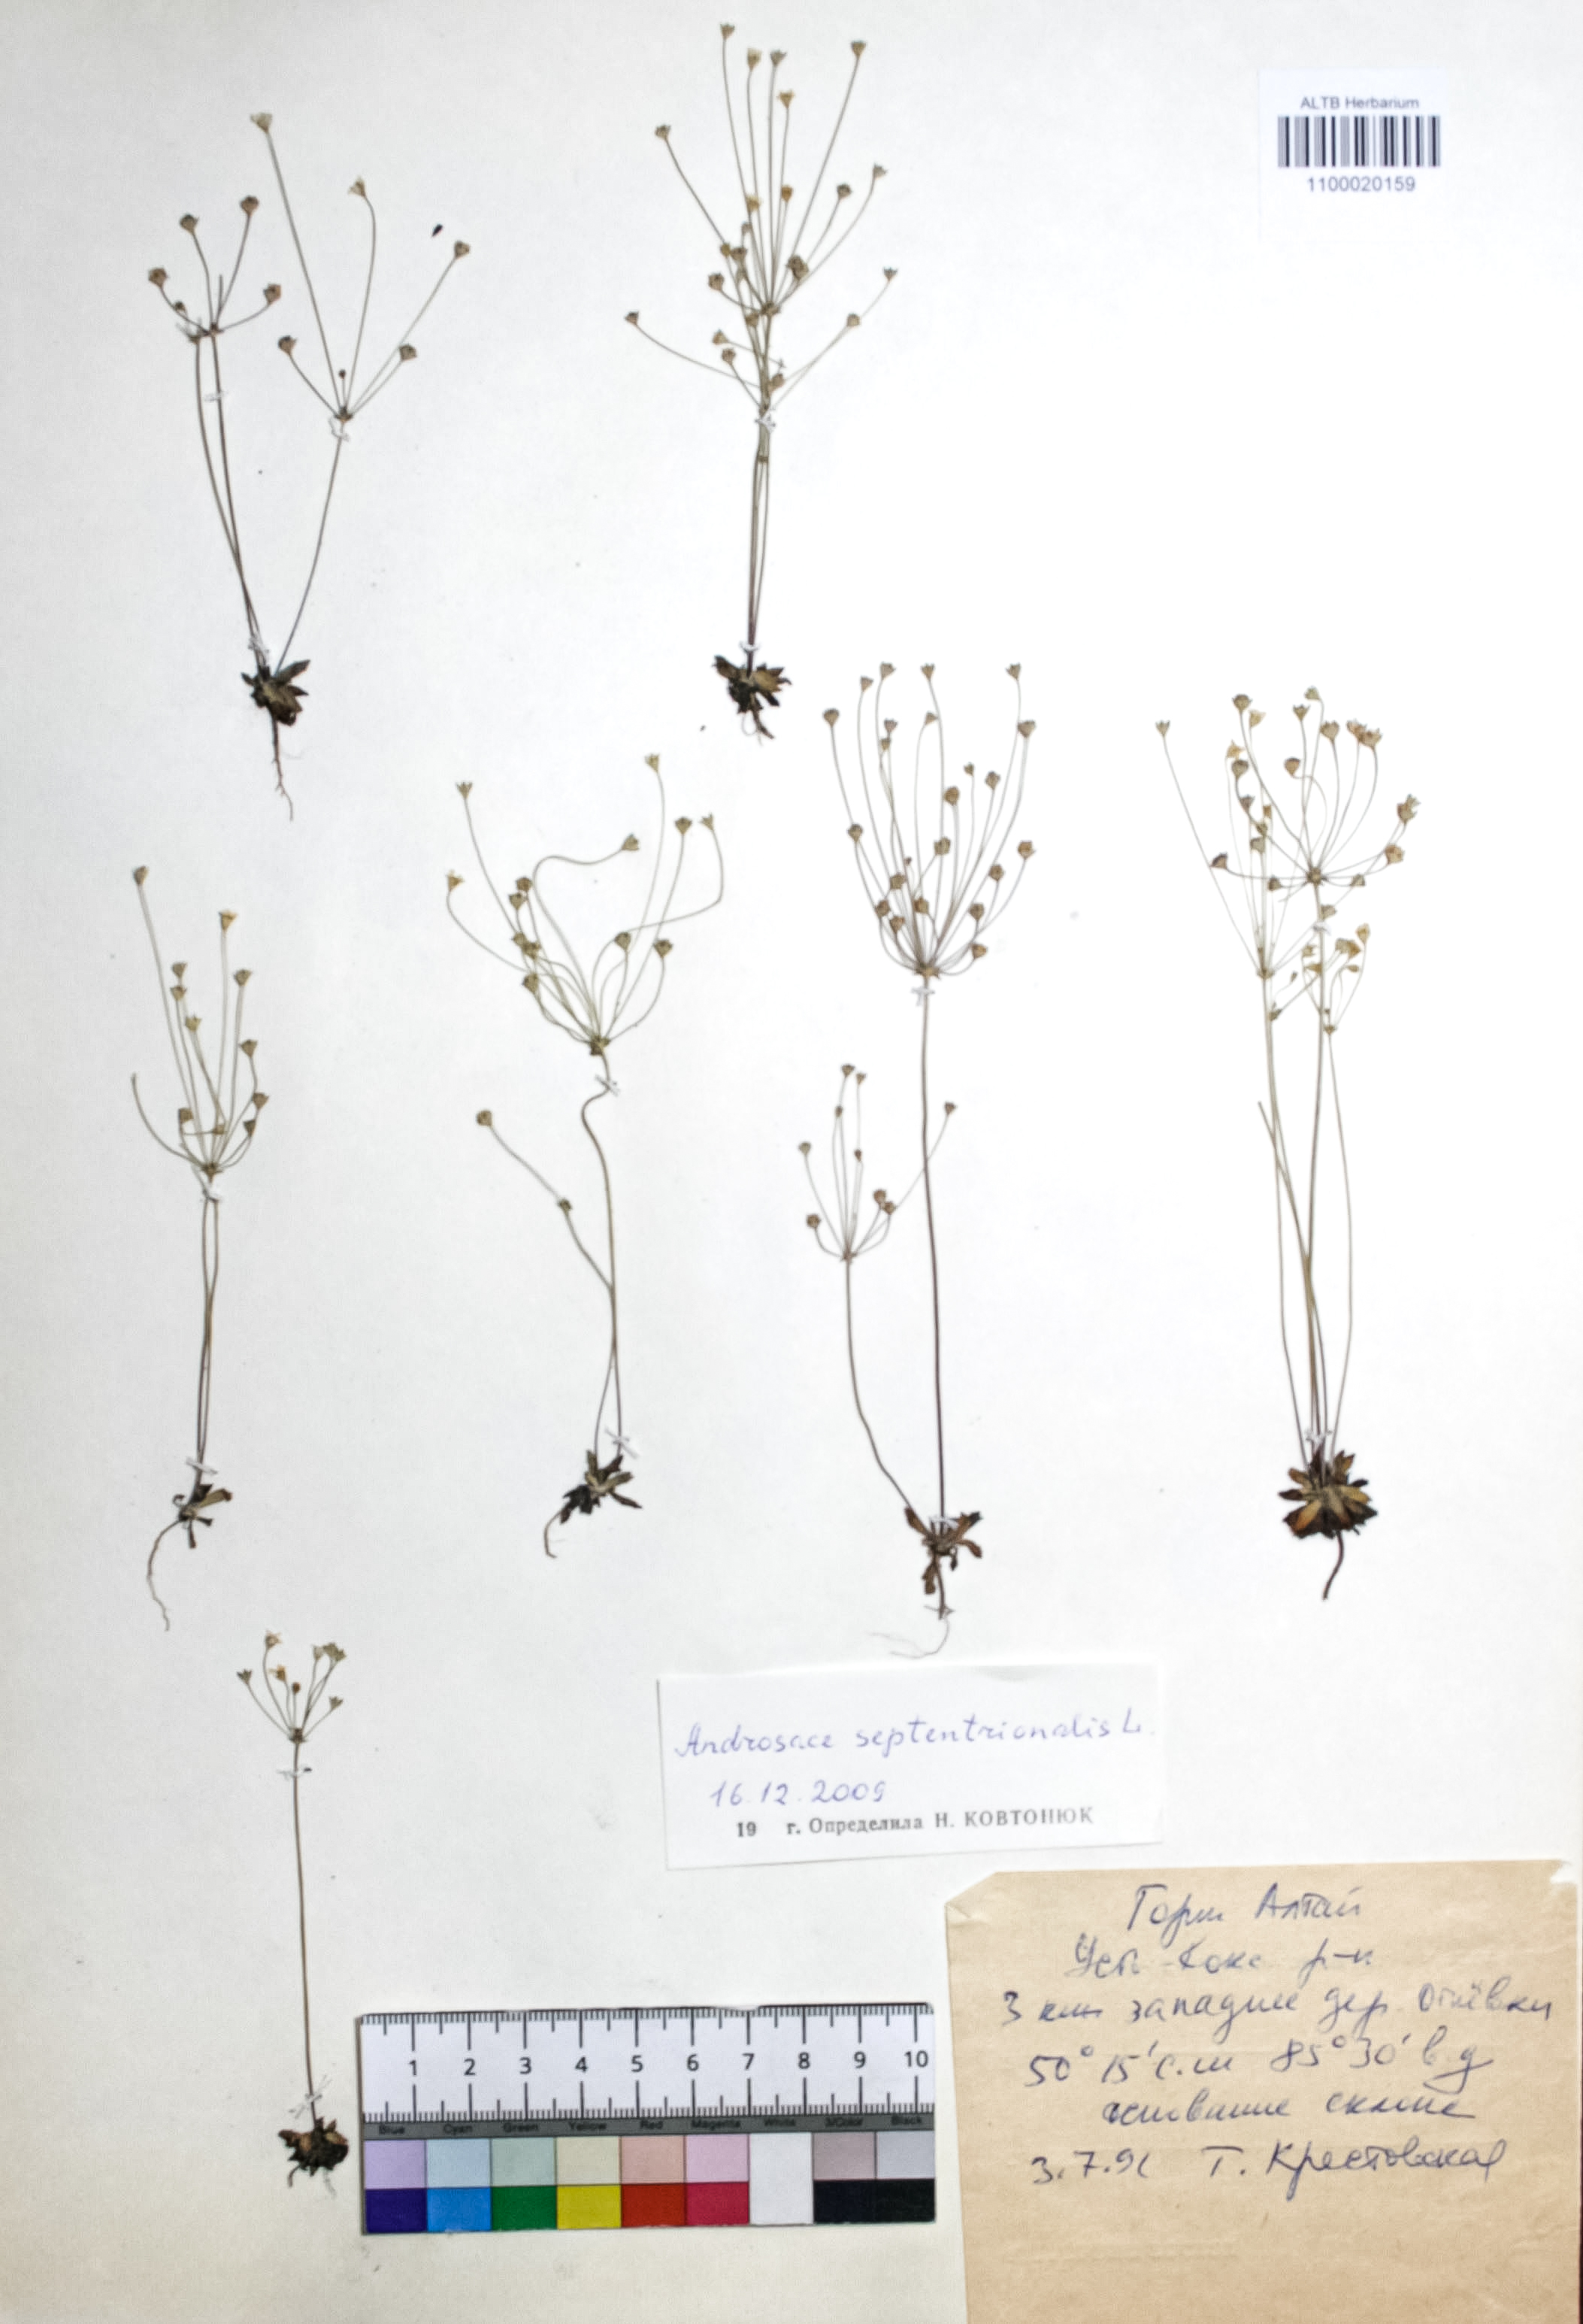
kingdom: Plantae
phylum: Tracheophyta
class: Magnoliopsida
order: Ericales
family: Primulaceae
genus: Androsace
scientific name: Androsace septentrionalis
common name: Hairy northern fairy-candelabra
